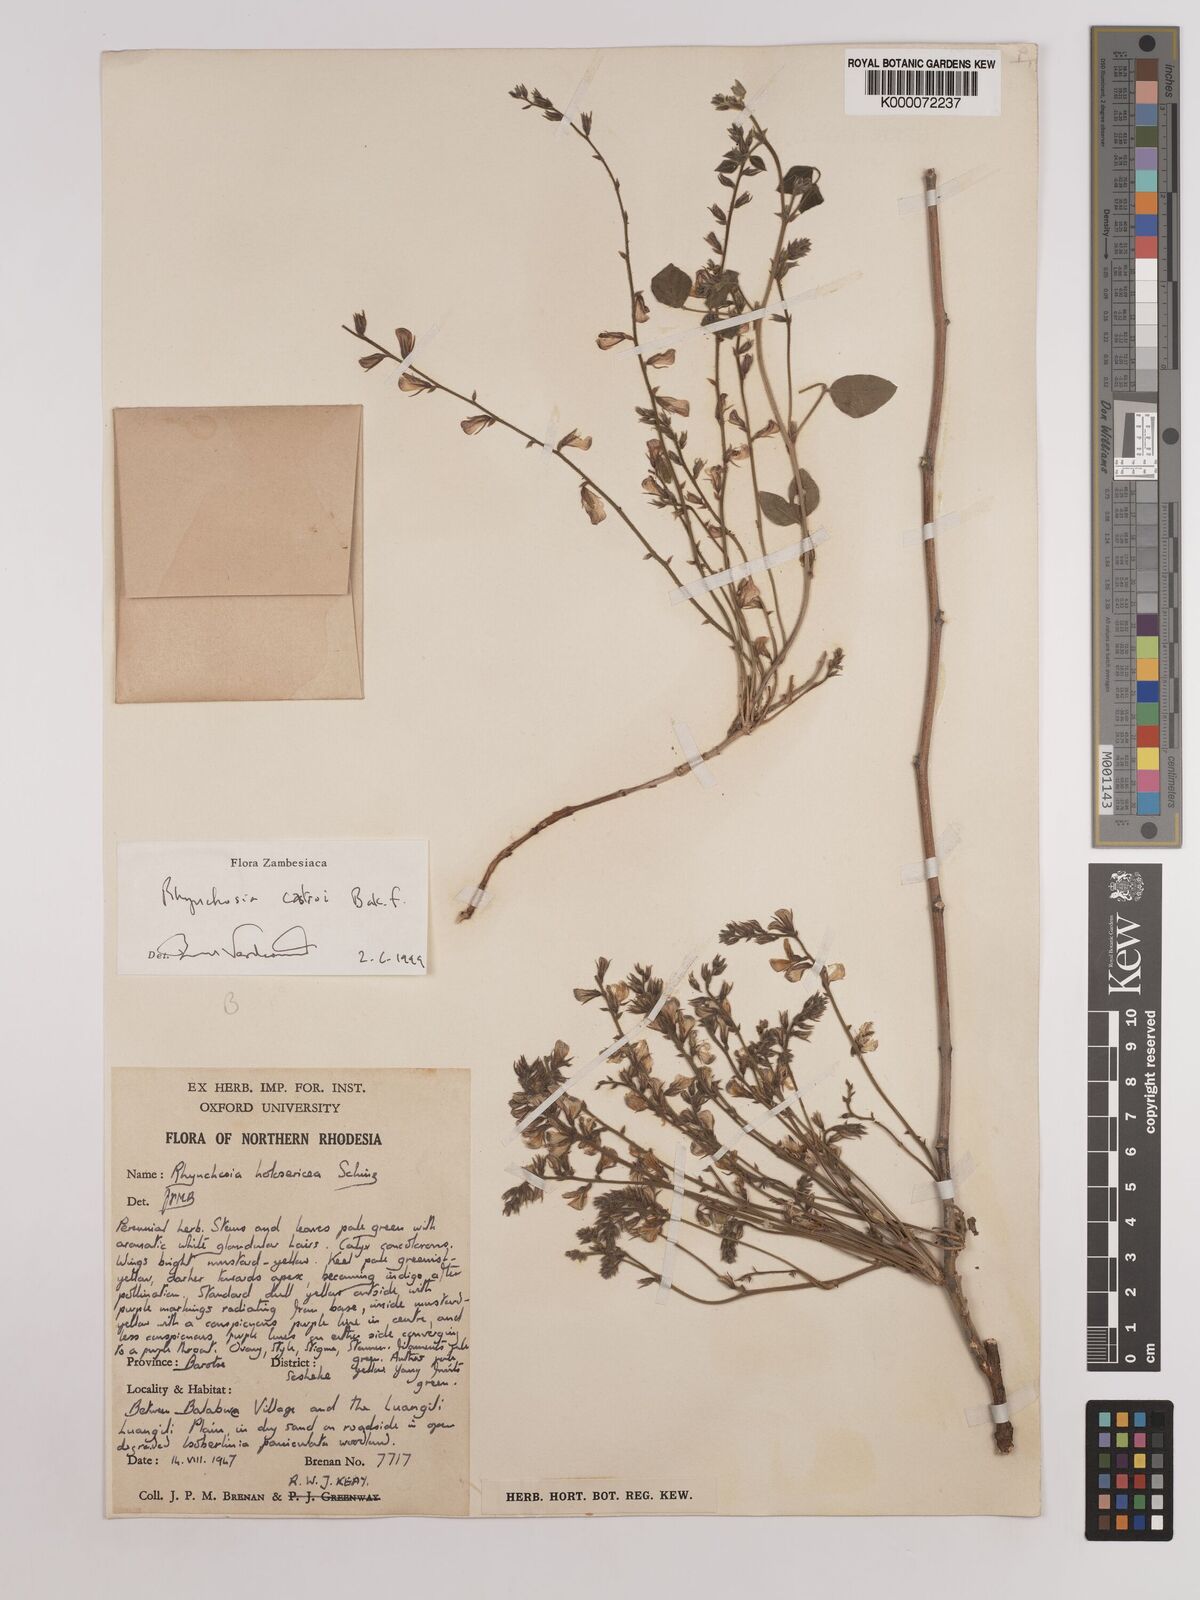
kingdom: Plantae
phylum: Tracheophyta
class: Magnoliopsida
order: Fabales
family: Fabaceae
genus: Rhynchosia
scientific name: Rhynchosia castroi
